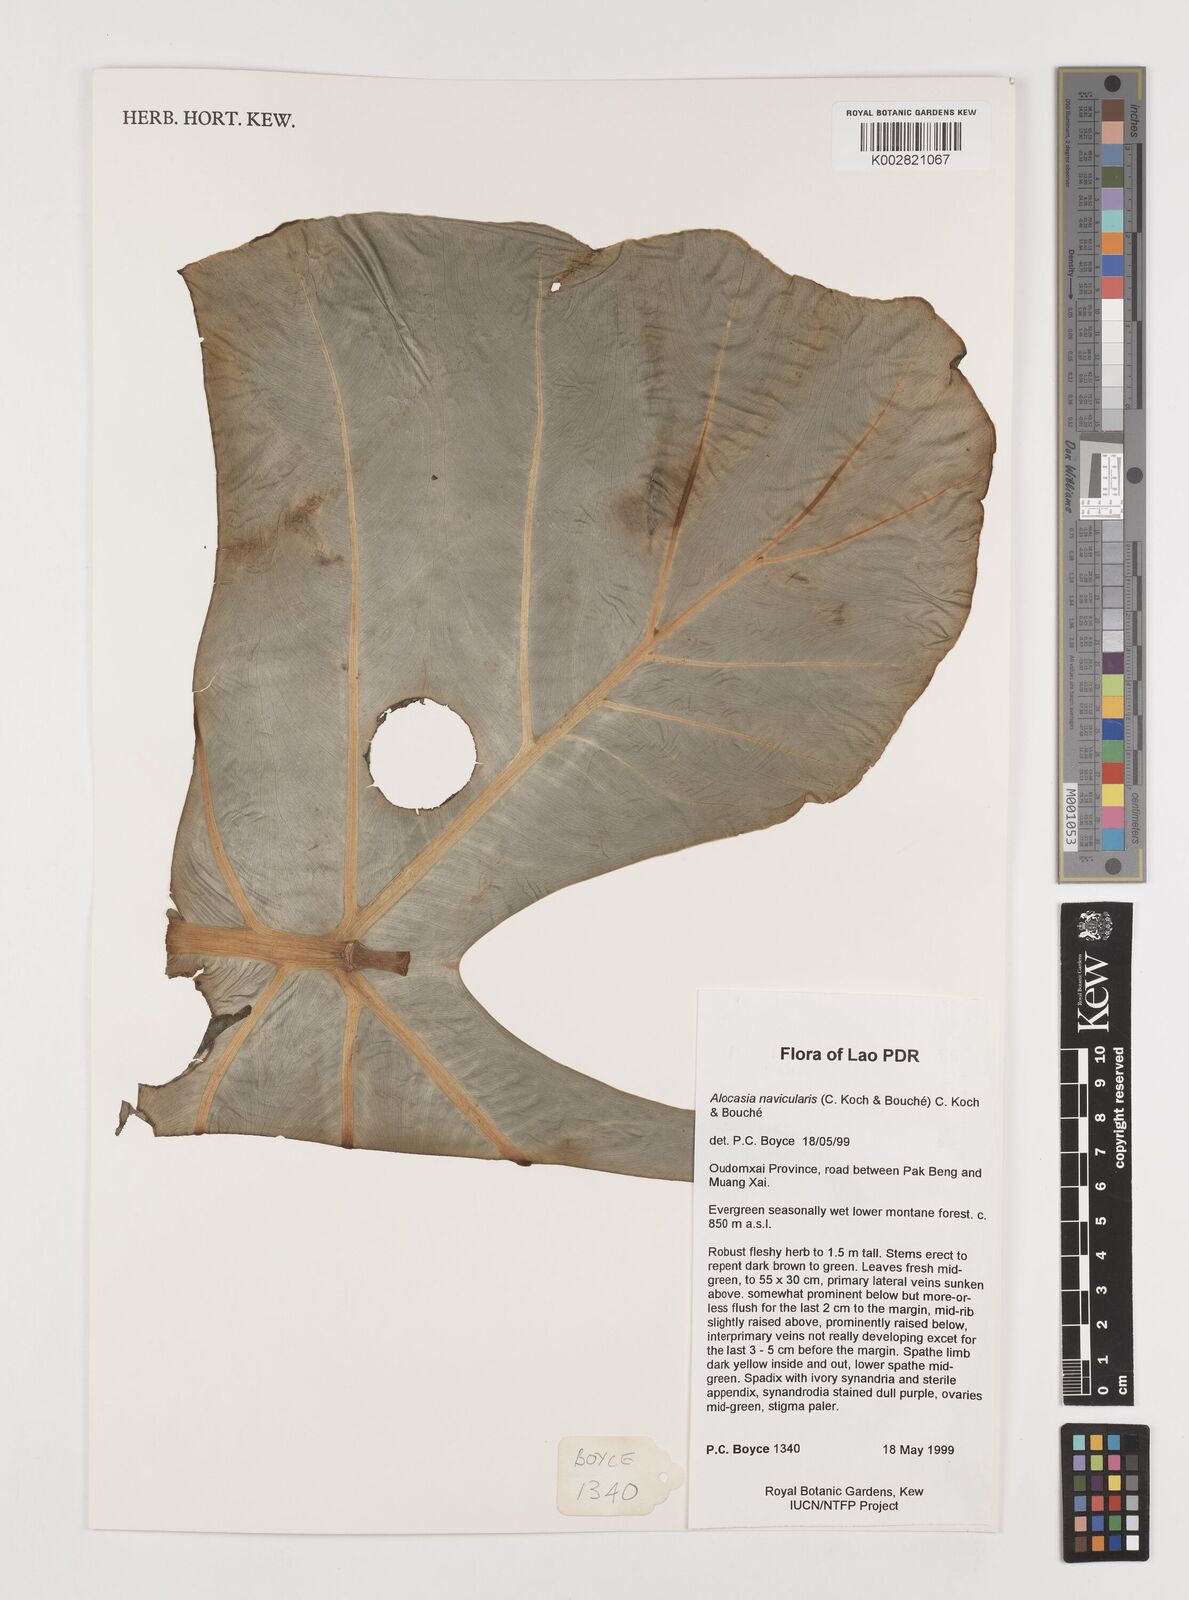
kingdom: Plantae
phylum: Tracheophyta
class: Liliopsida
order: Alismatales
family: Araceae
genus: Alocasia
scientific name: Alocasia navicularis
